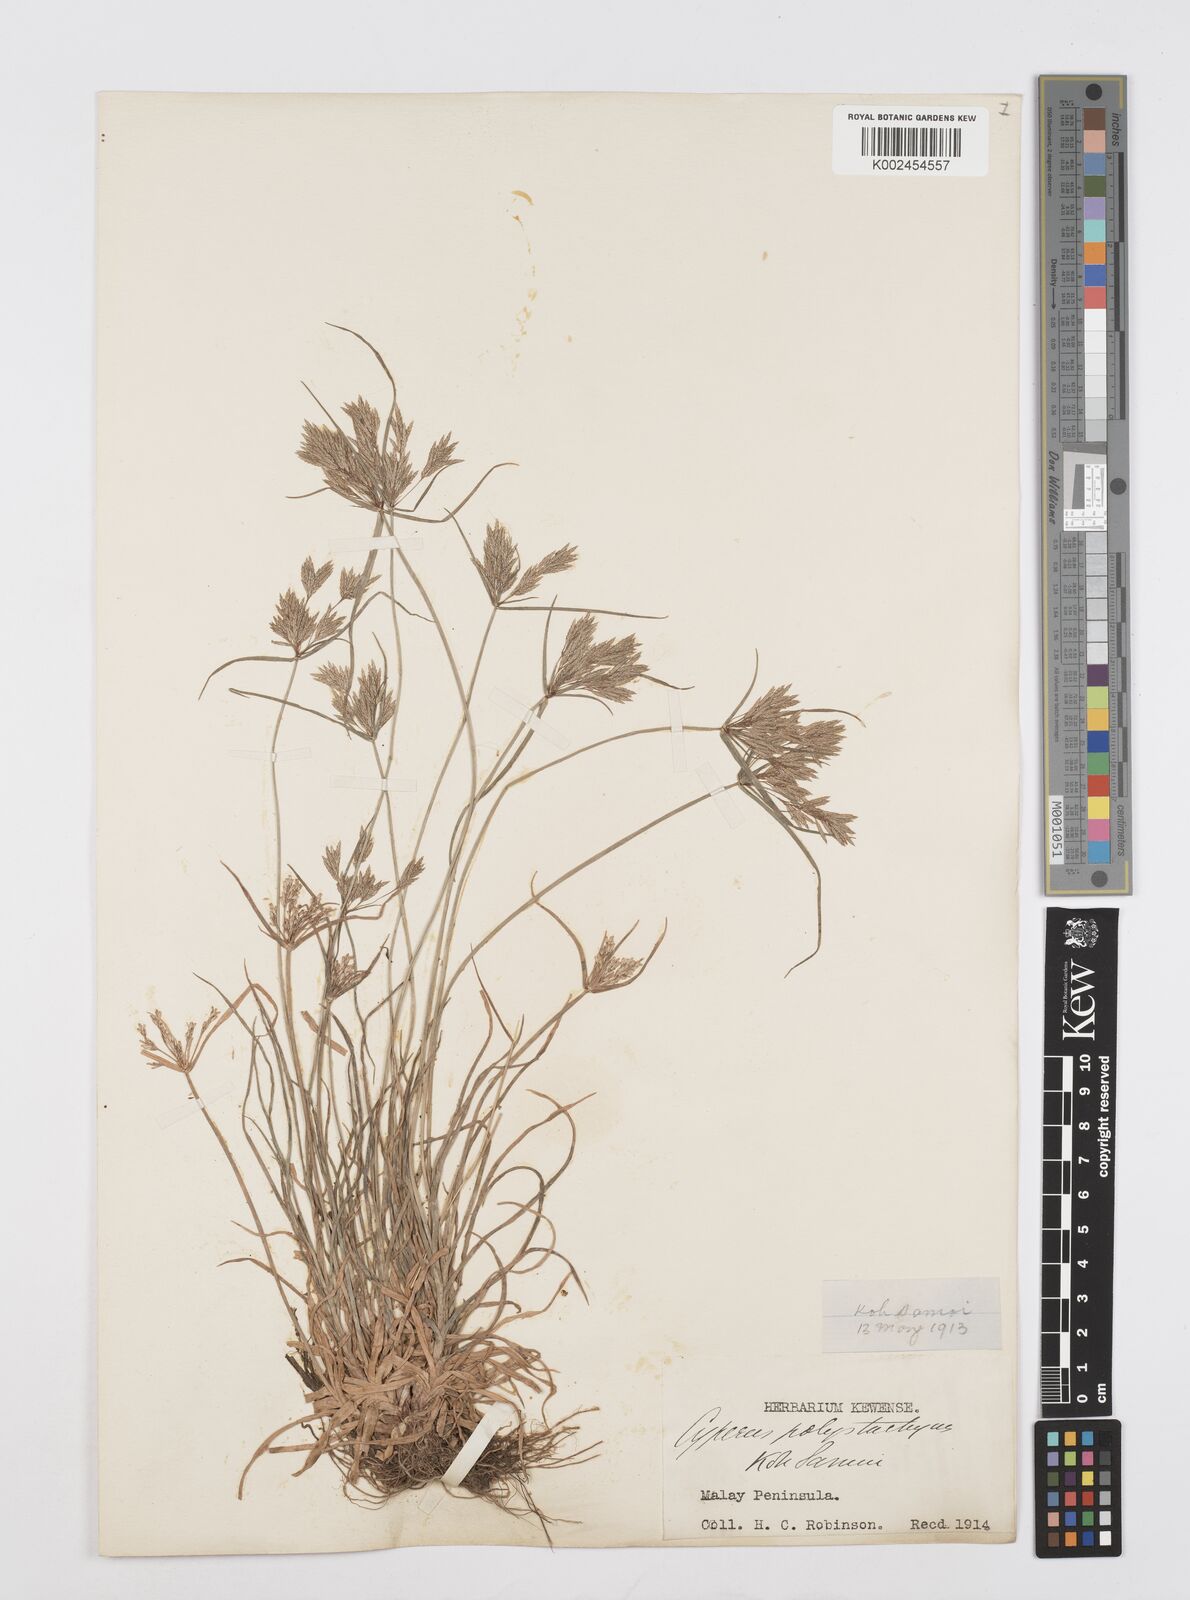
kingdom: Plantae
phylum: Tracheophyta
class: Liliopsida
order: Poales
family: Cyperaceae
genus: Cyperus
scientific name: Cyperus polystachyos
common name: Bunchy flat sedge
